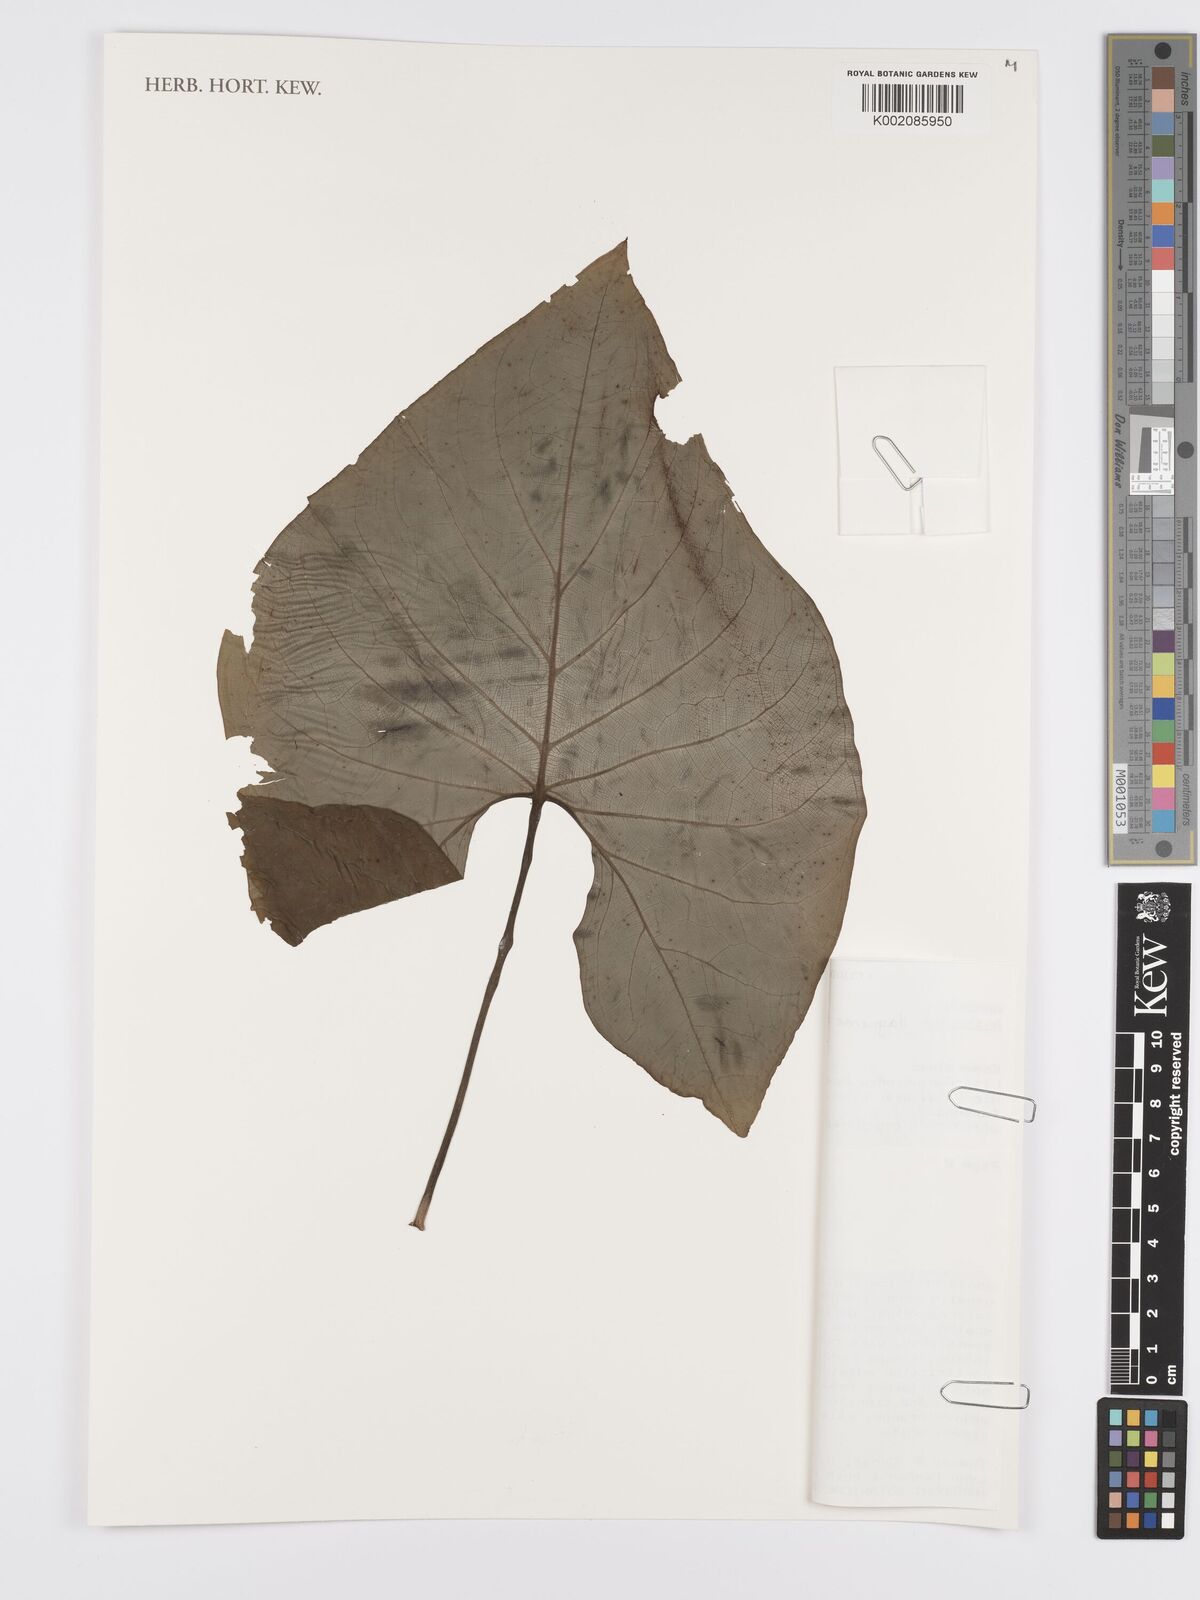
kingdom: Plantae
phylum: Tracheophyta
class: Liliopsida
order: Alismatales
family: Araceae
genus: Anthurium
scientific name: Anthurium daguense
